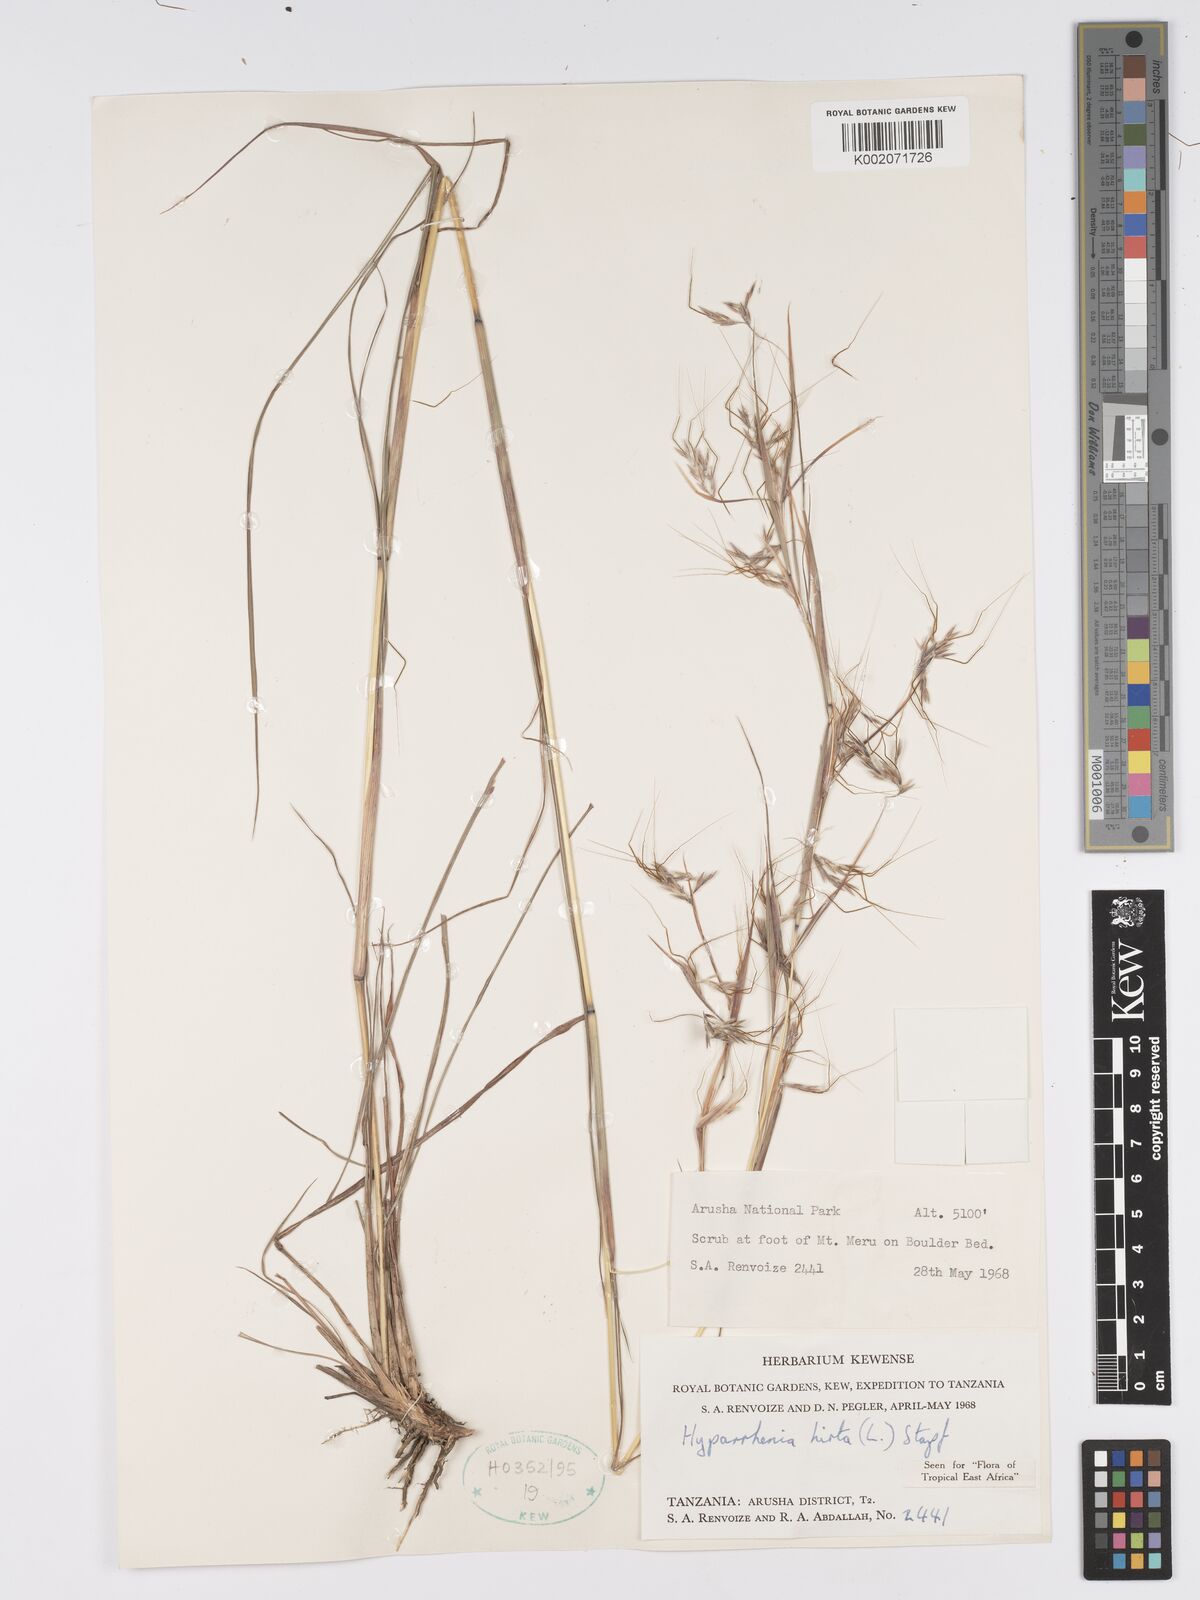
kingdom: Plantae
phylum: Tracheophyta
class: Liliopsida
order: Poales
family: Poaceae
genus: Hyparrhenia
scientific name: Hyparrhenia hirta
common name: Thatching grass
